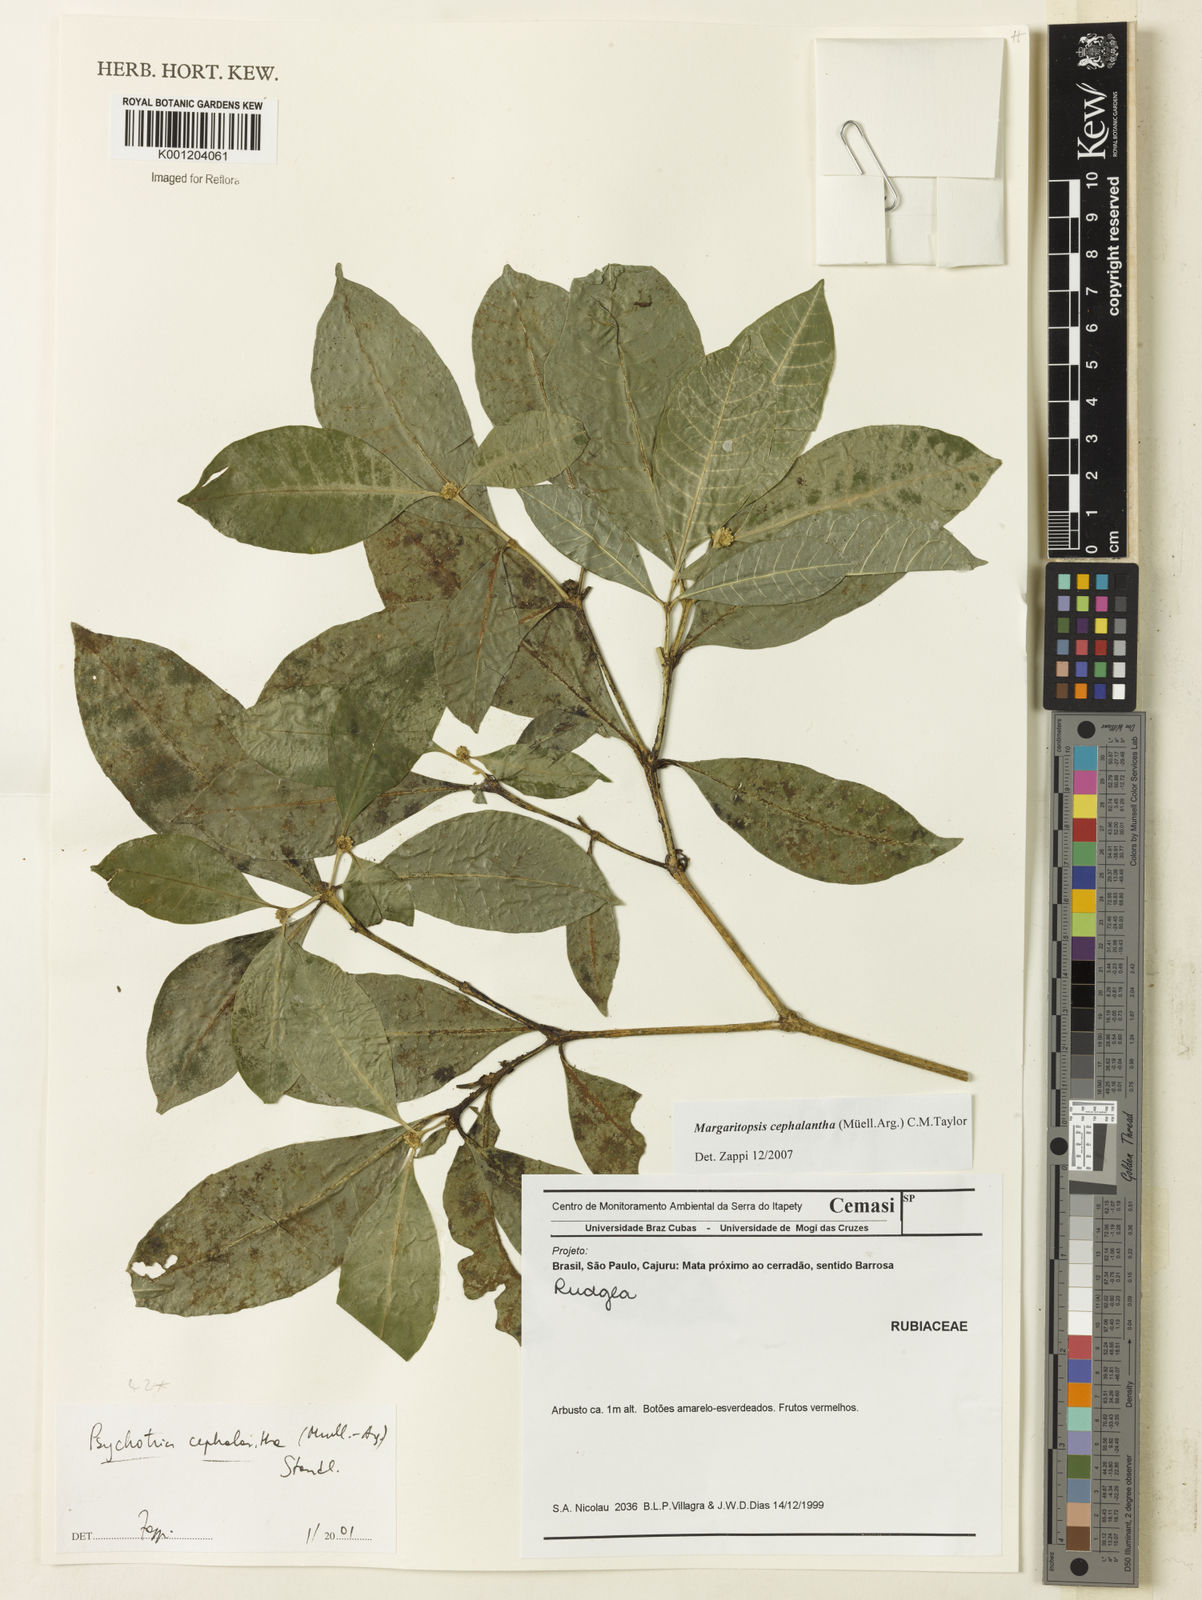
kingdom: Plantae
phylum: Tracheophyta
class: Magnoliopsida
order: Gentianales
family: Rubiaceae
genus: Eumachia
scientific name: Eumachia
